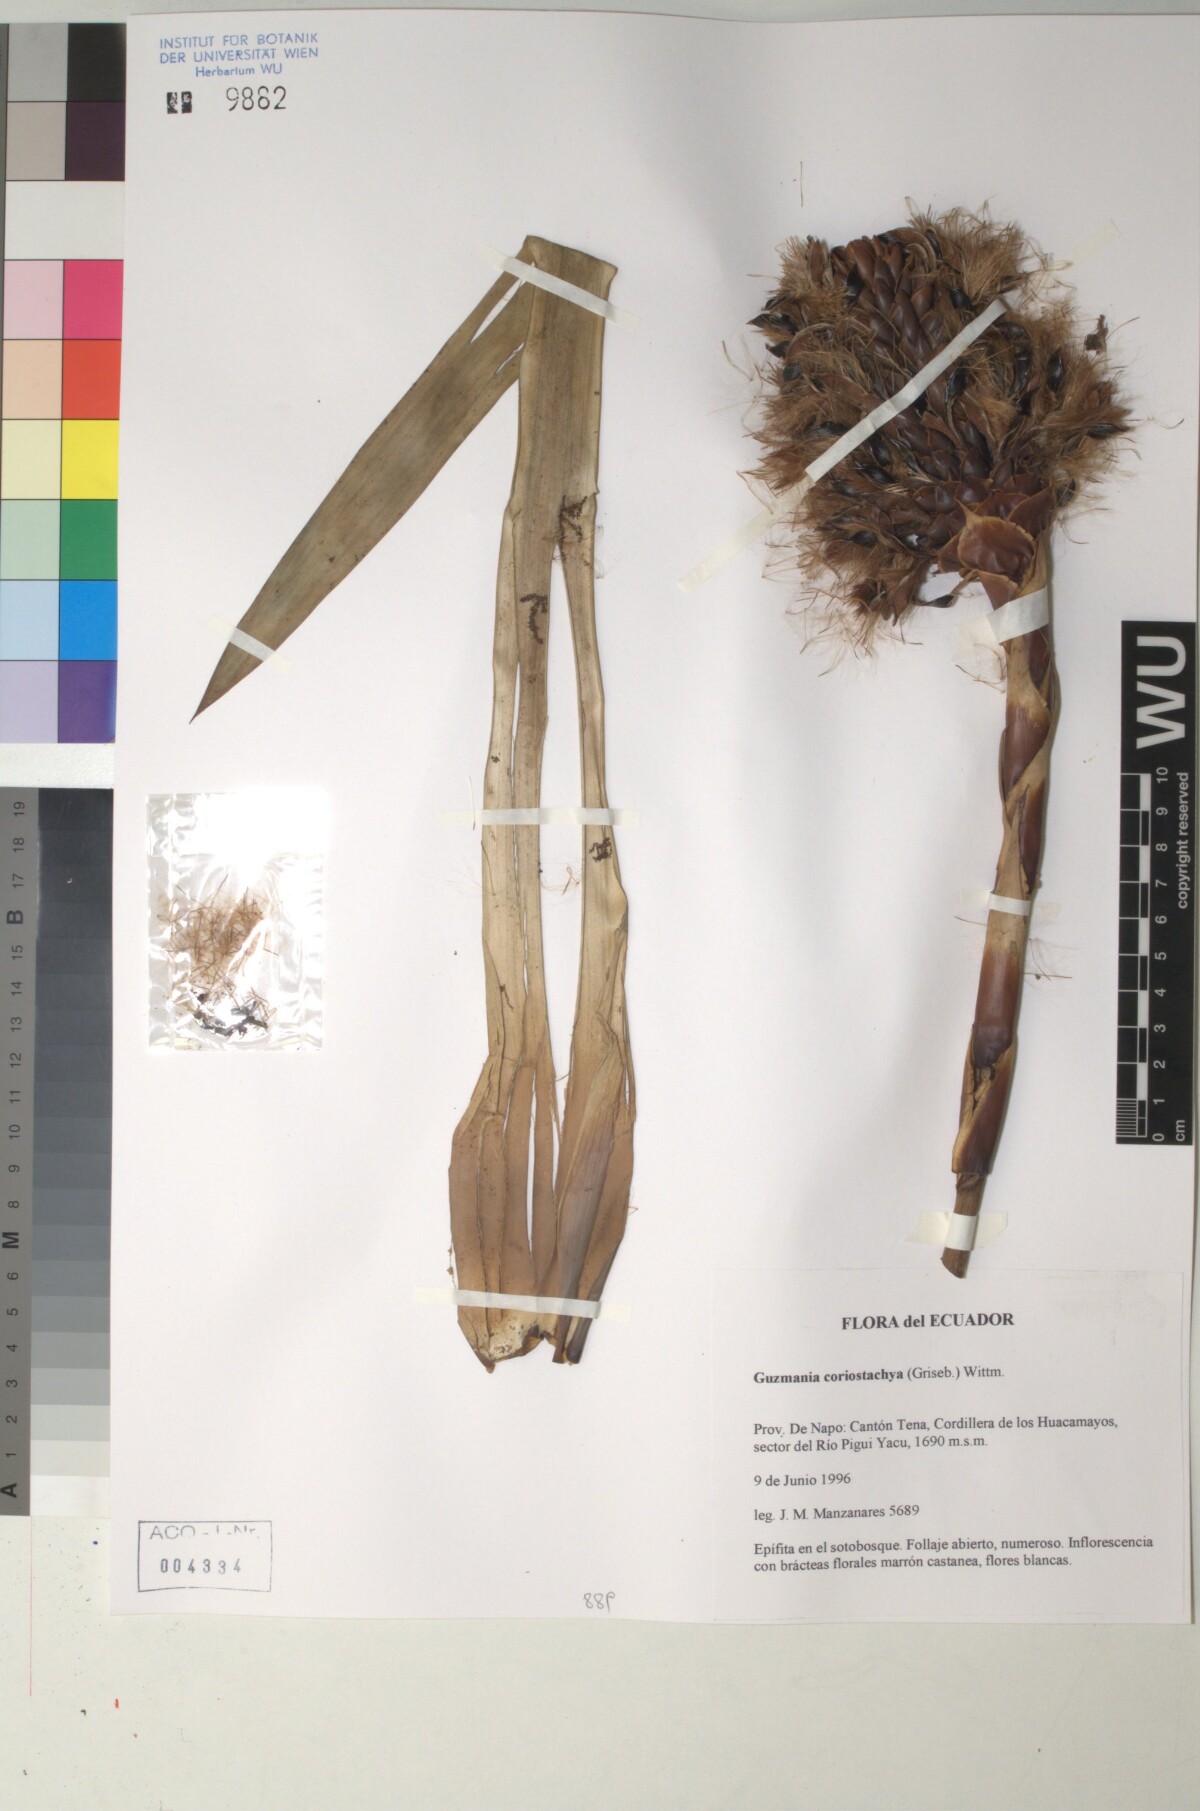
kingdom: Plantae
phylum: Tracheophyta
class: Liliopsida
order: Poales
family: Bromeliaceae
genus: Guzmania
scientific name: Guzmania coriostachya
